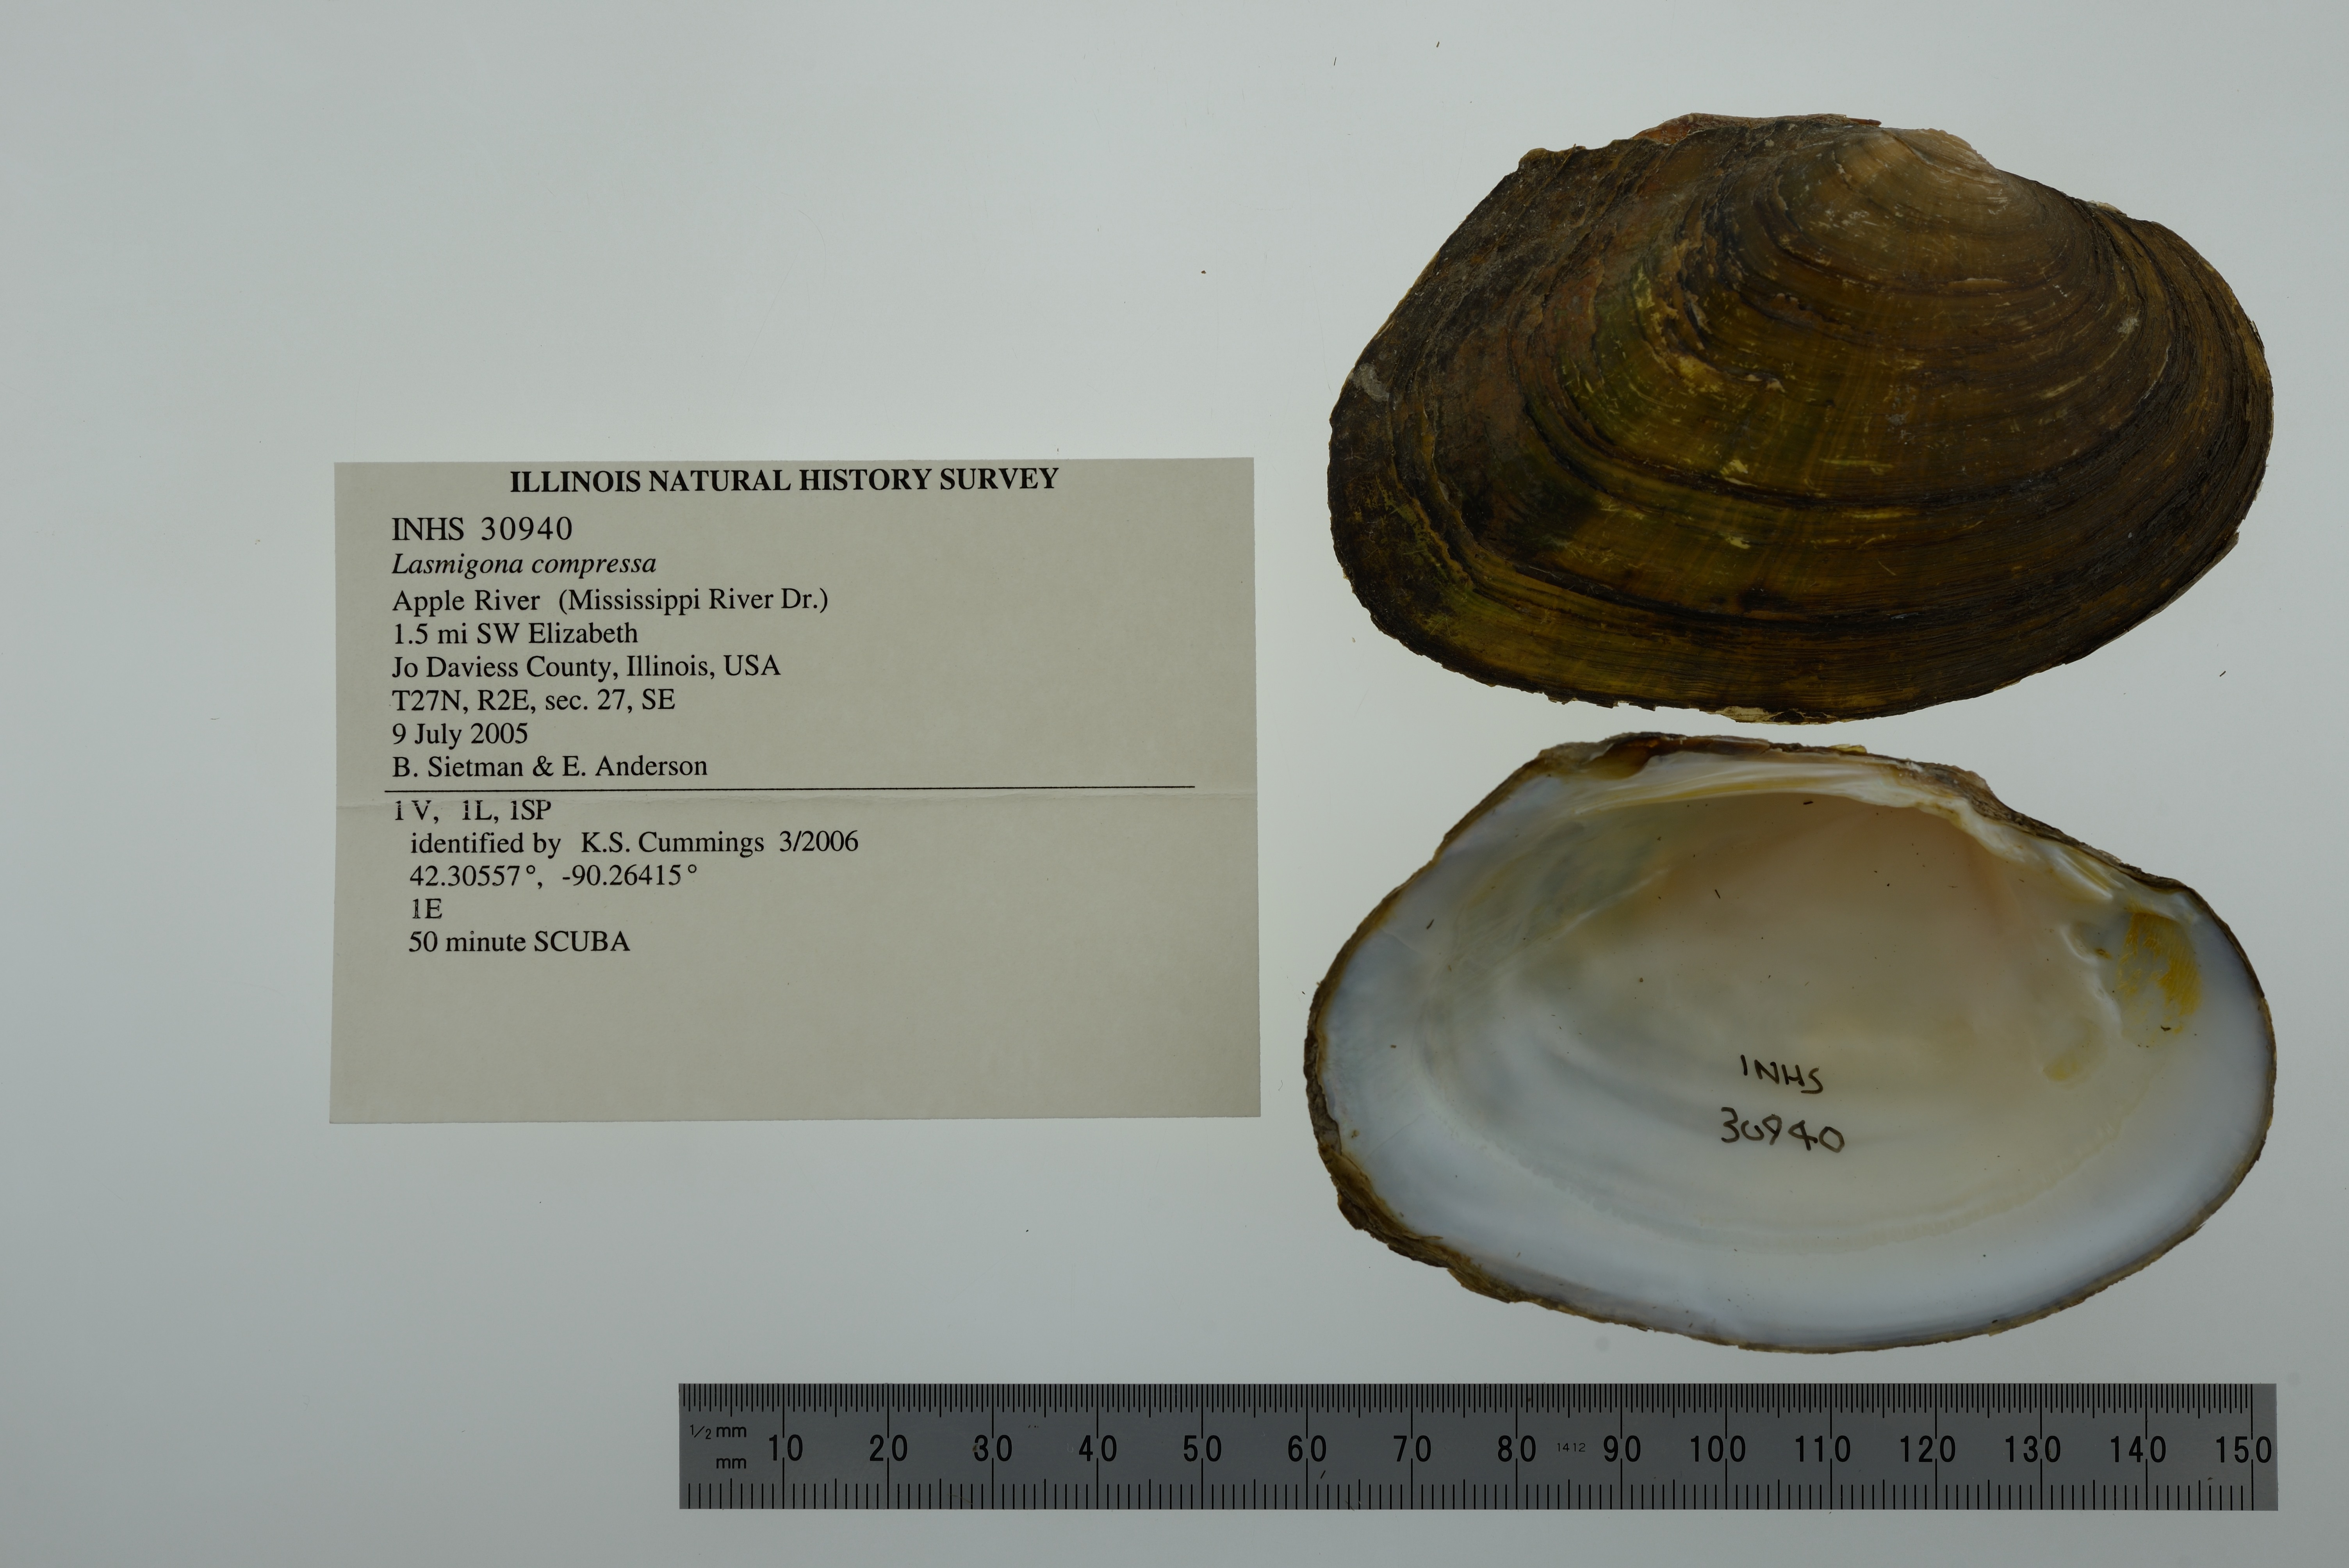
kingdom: Animalia
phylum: Mollusca
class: Bivalvia
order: Unionida
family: Unionidae
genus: Lasmigona
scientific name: Lasmigona compressa
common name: Creek heelsplitter
